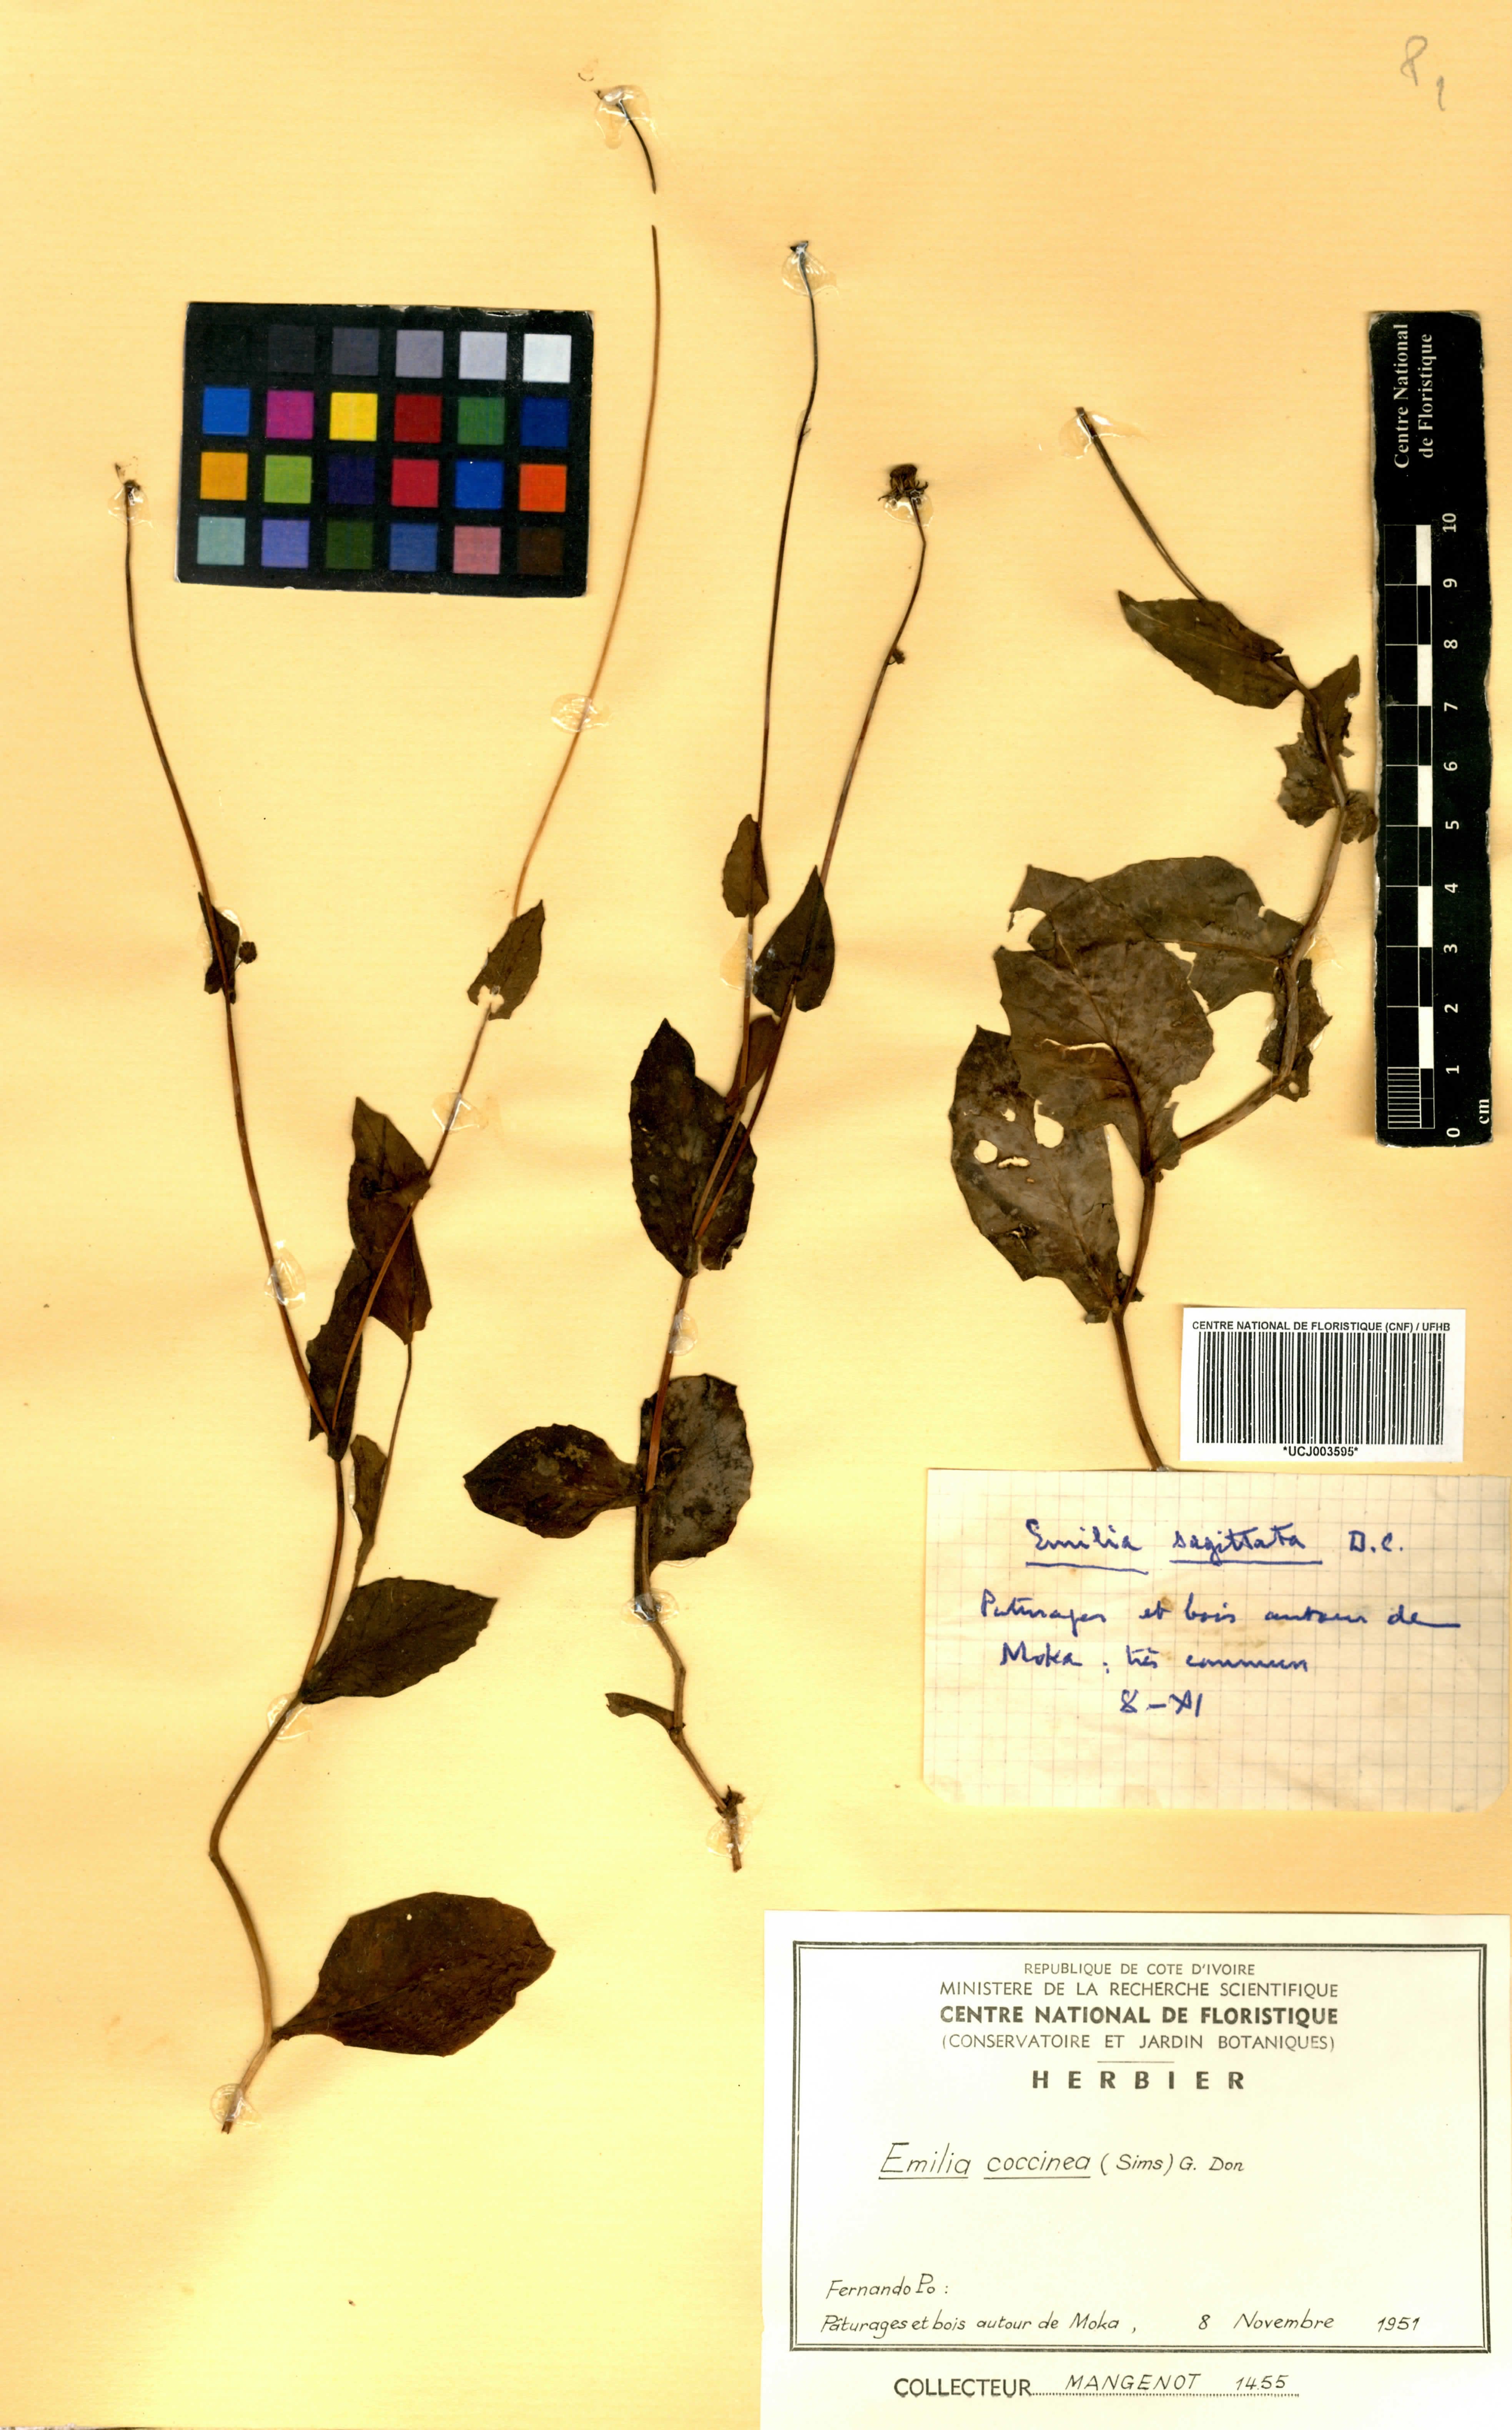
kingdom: Plantae
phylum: Tracheophyta
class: Magnoliopsida
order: Asterales
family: Asteraceae
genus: Emilia
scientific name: Emilia coccinea
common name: Scarlet tasselflower
